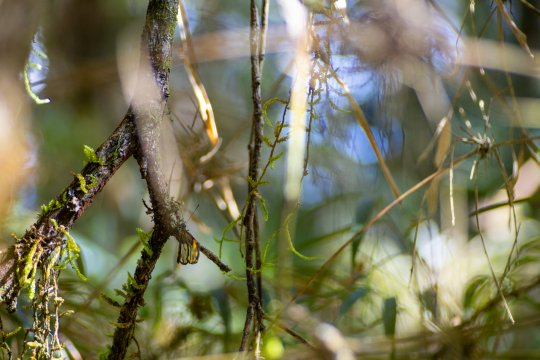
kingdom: Animalia
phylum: Arthropoda
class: Insecta
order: Lepidoptera
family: Nymphalidae
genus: Greta
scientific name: Greta andromica
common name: Andromica Clearwing
